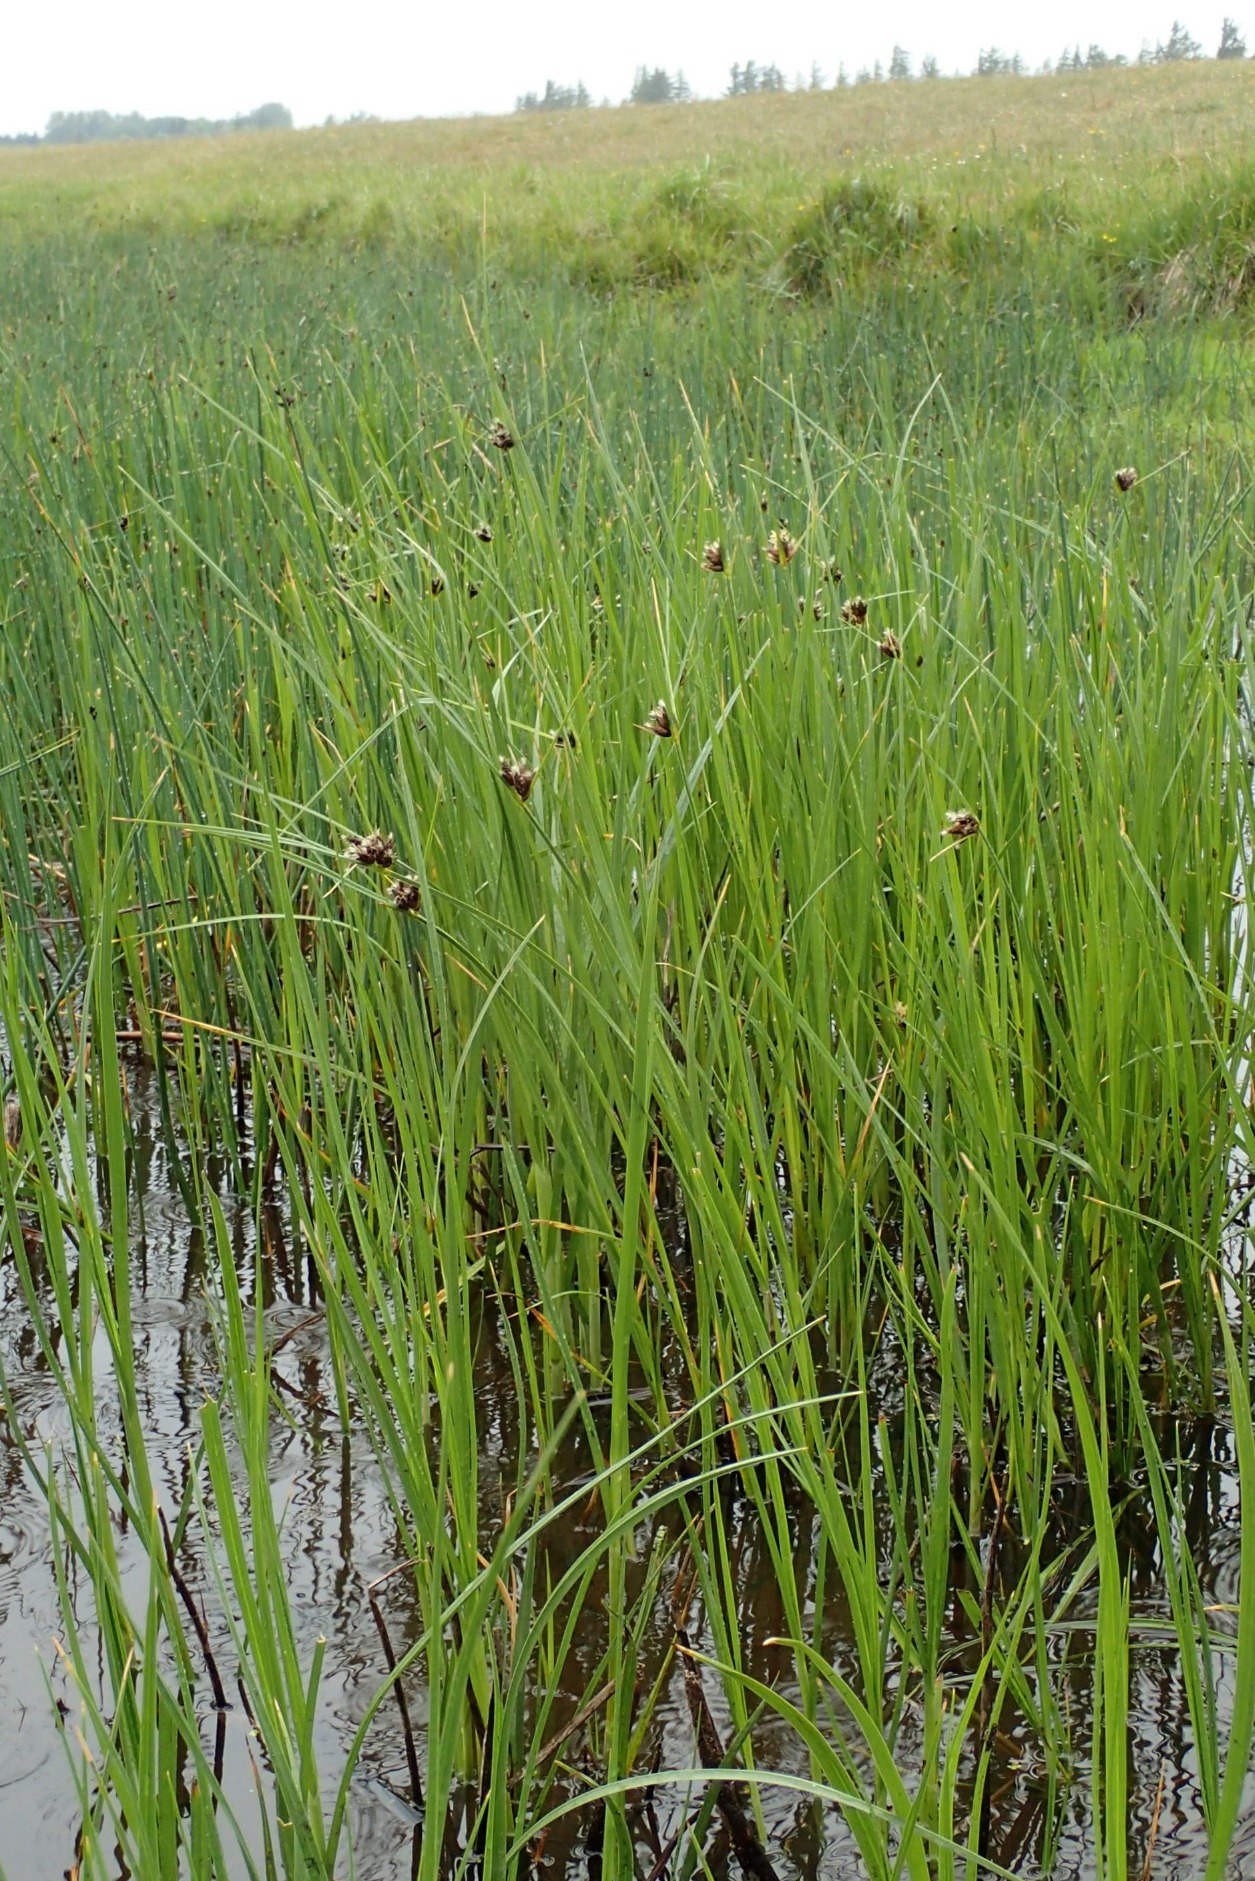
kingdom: Plantae
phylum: Tracheophyta
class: Liliopsida
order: Poales
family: Cyperaceae
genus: Bolboschoenus
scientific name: Bolboschoenus maritimus
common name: Strand-kogleaks
